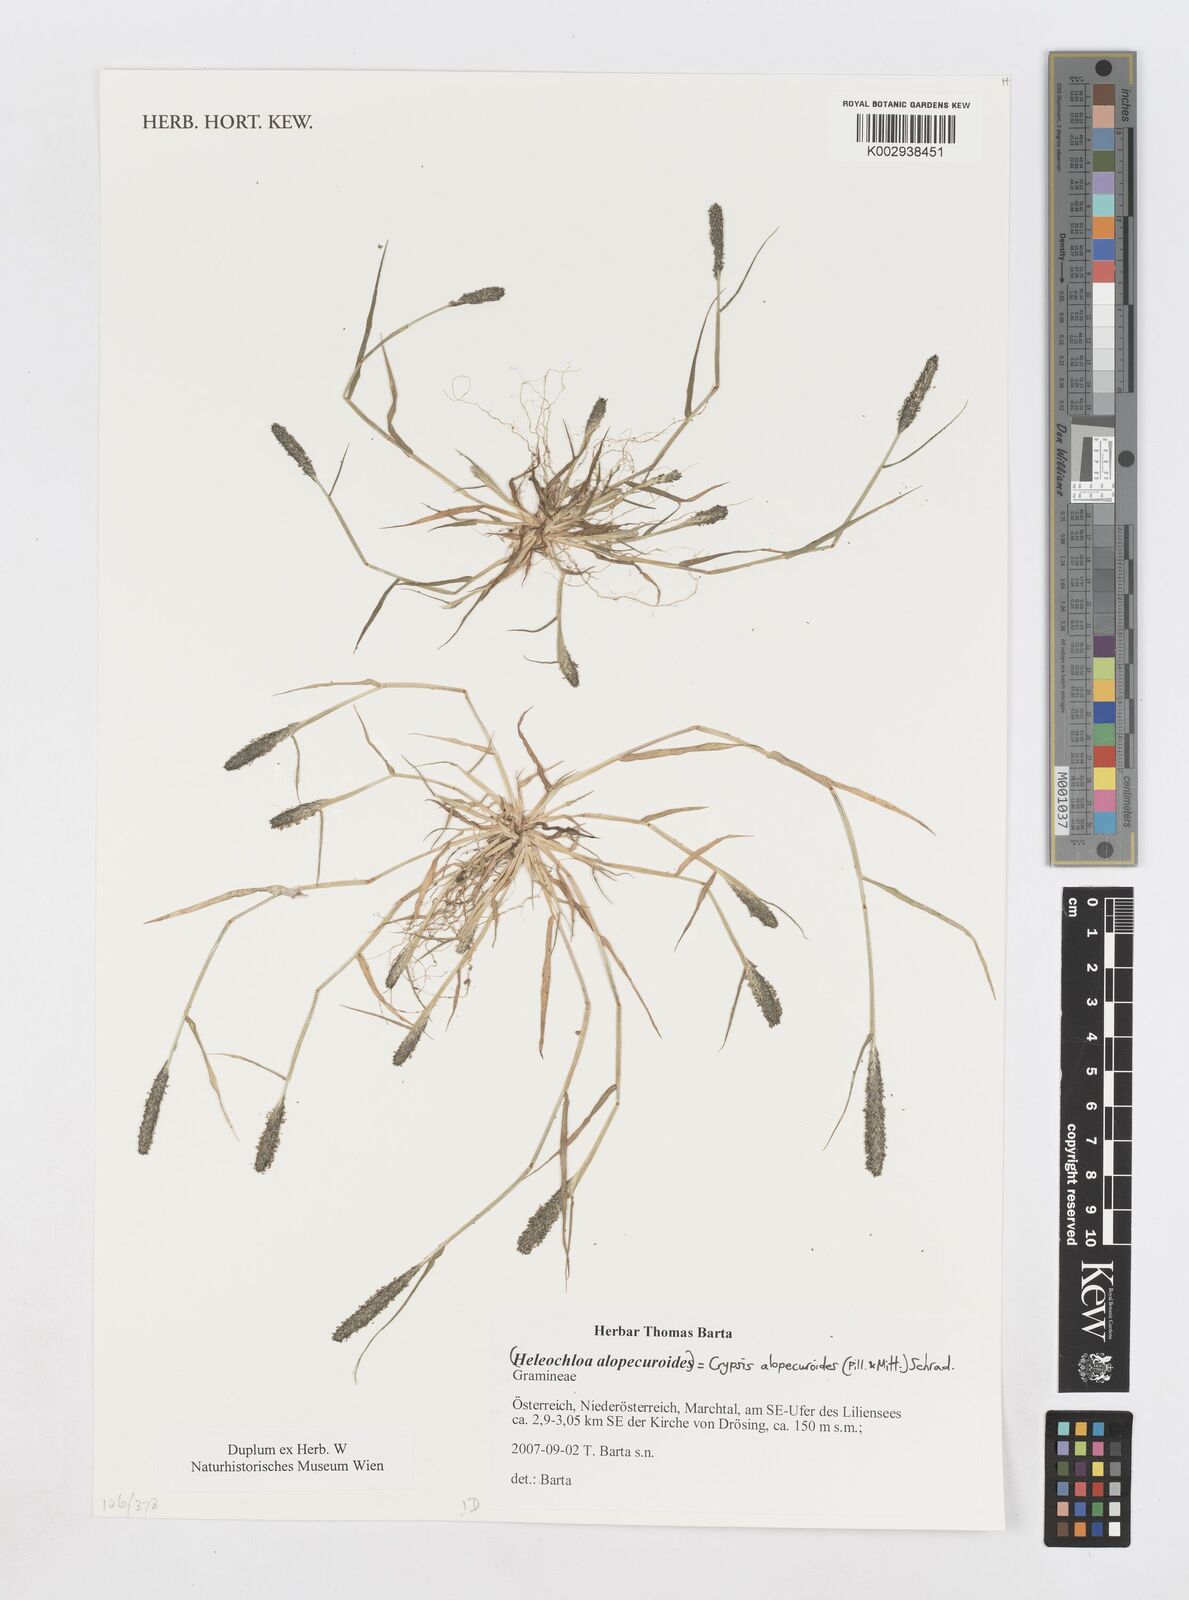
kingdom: Plantae
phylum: Tracheophyta
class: Liliopsida
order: Poales
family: Poaceae
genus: Sporobolus
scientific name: Sporobolus alopecuroides
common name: Foxtail pricklegrass
